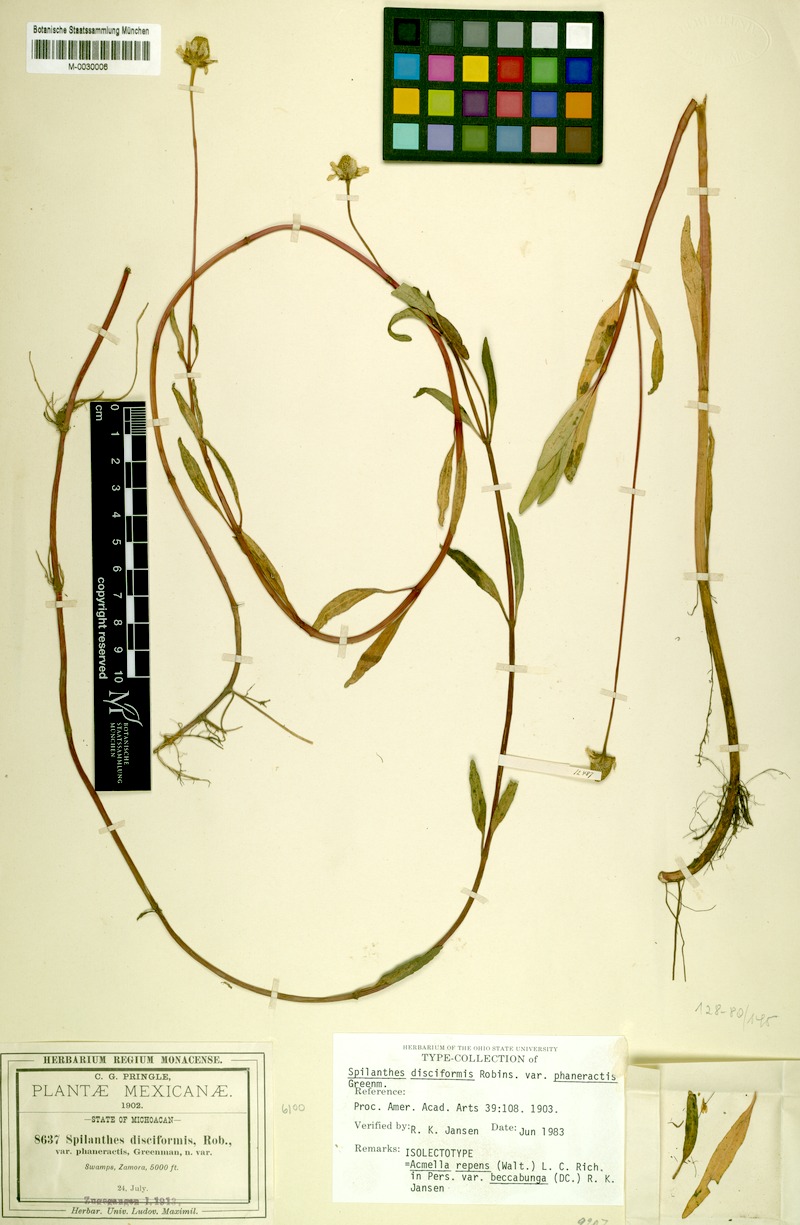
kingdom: Plantae
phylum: Tracheophyta
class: Magnoliopsida
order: Asterales
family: Asteraceae
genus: Acmella
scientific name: Acmella repens
